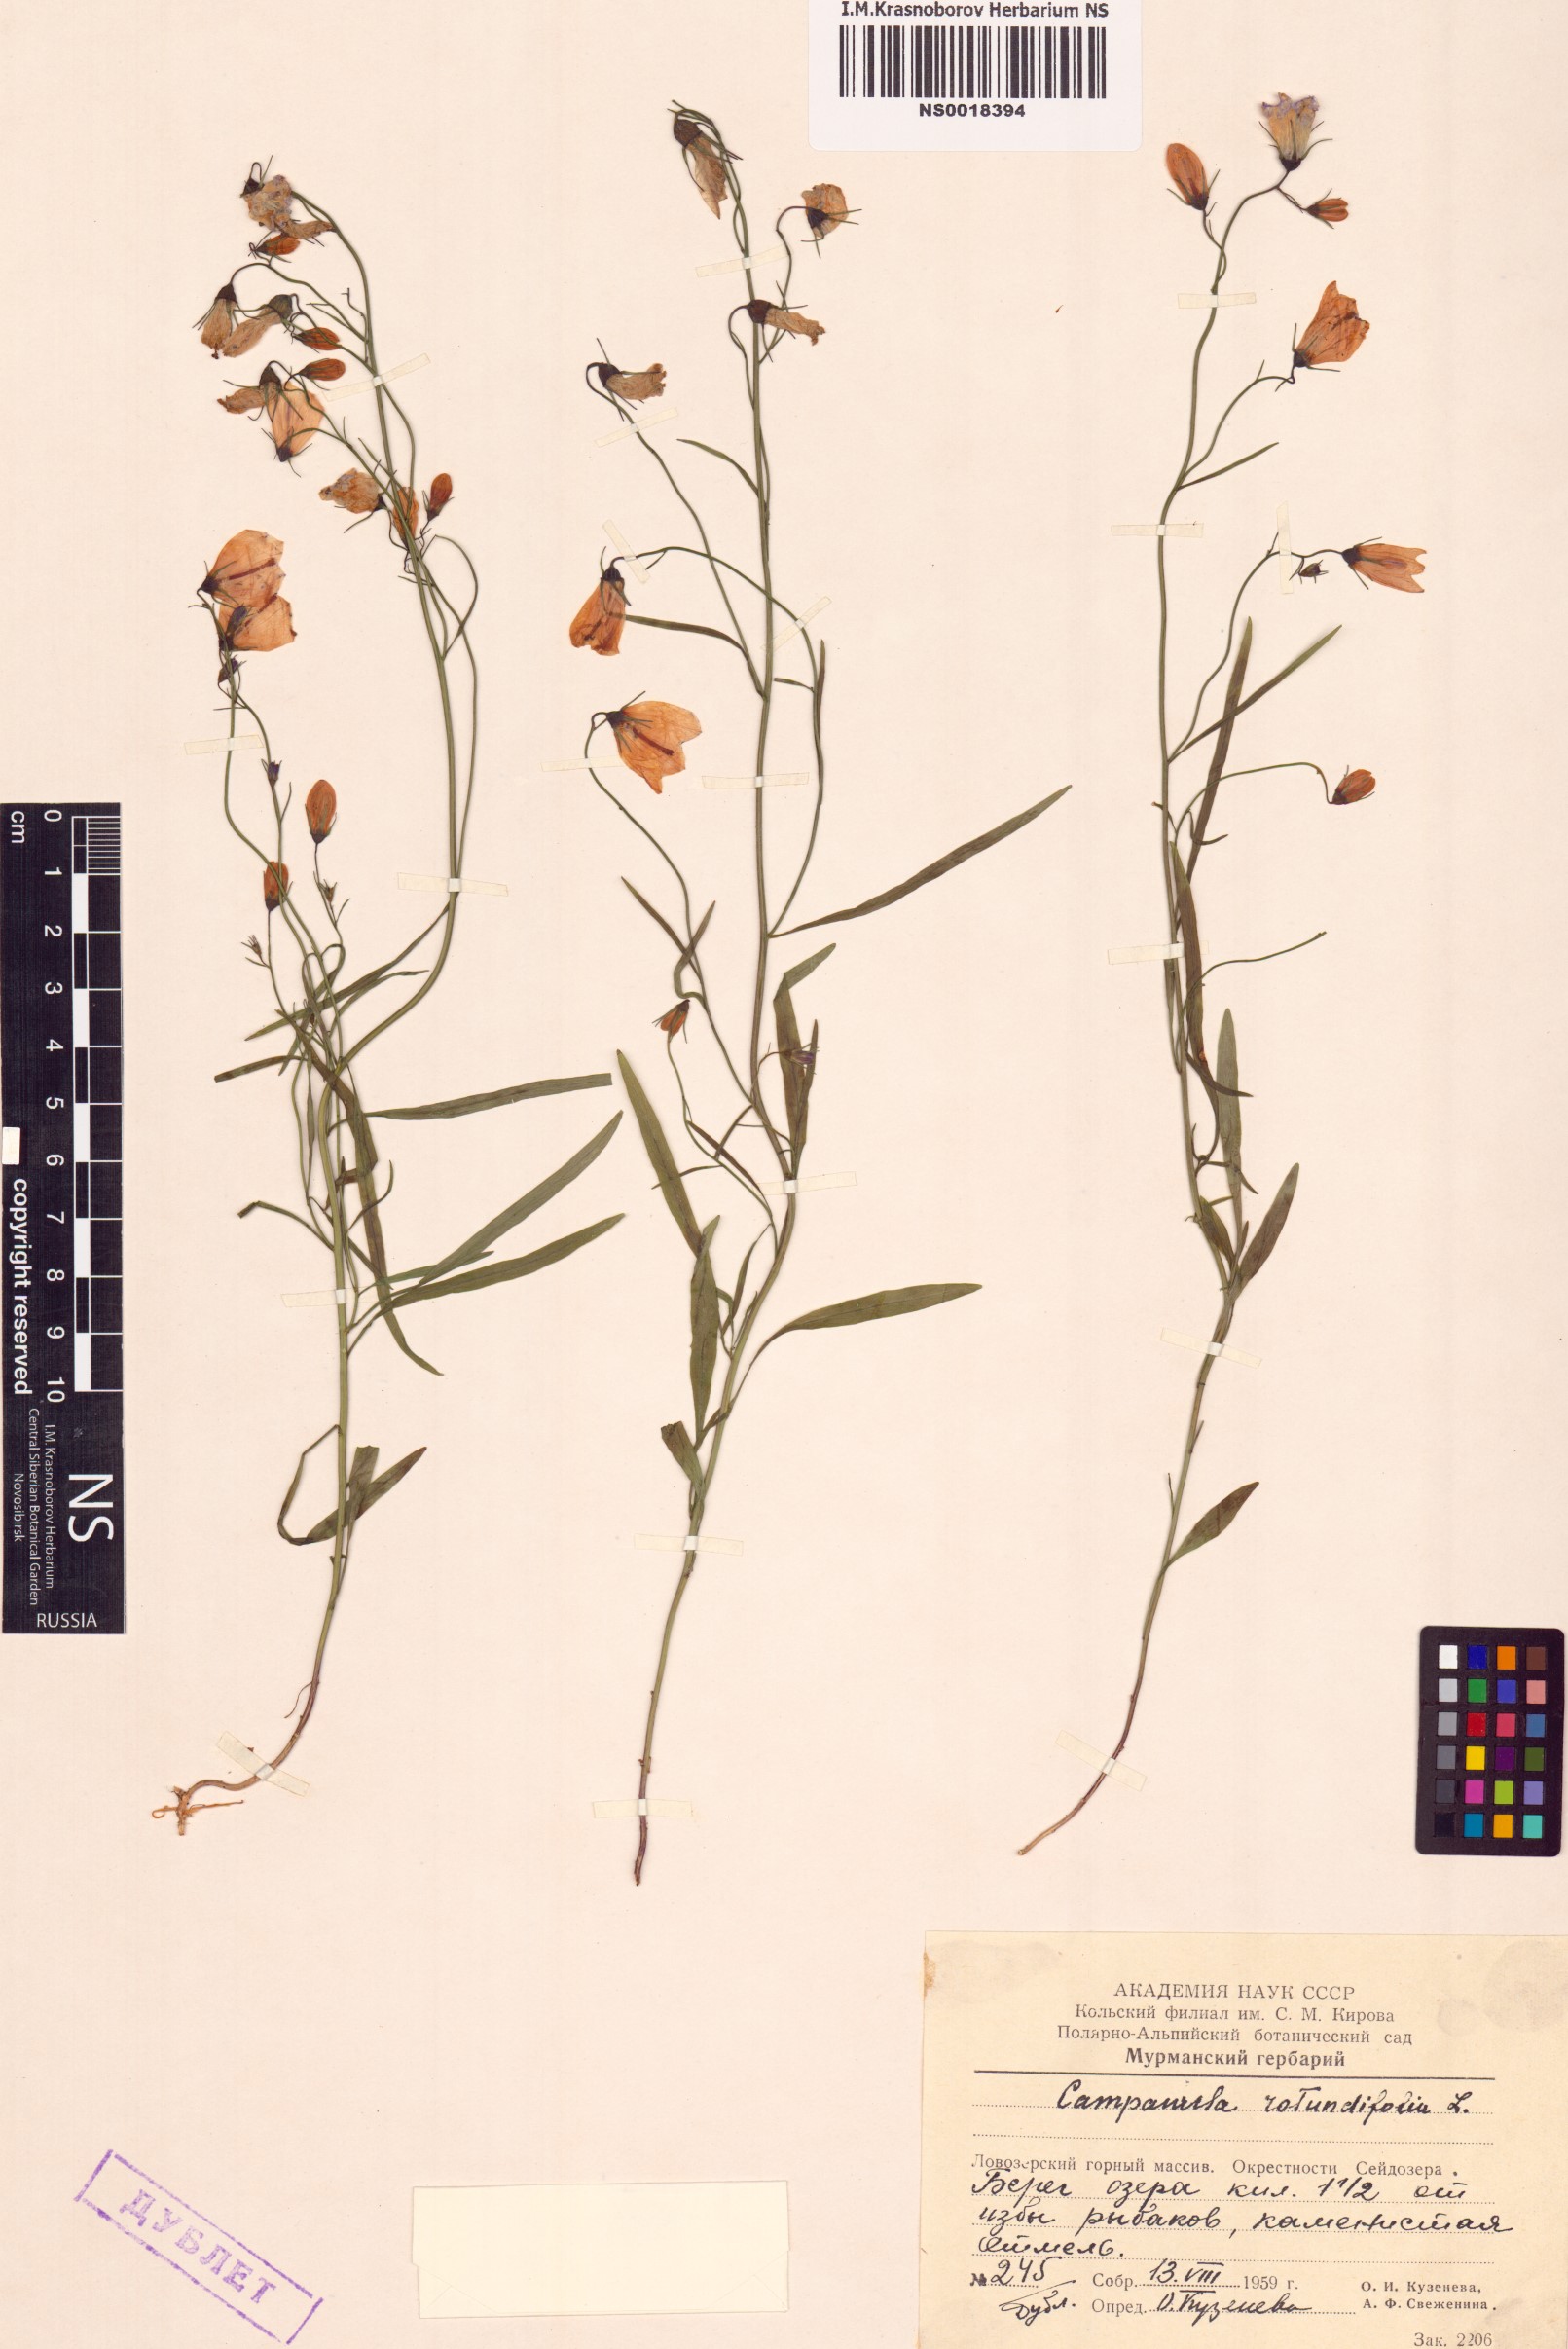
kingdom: Plantae
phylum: Tracheophyta
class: Magnoliopsida
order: Asterales
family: Campanulaceae
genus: Campanula
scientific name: Campanula rotundifolia
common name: Harebell
